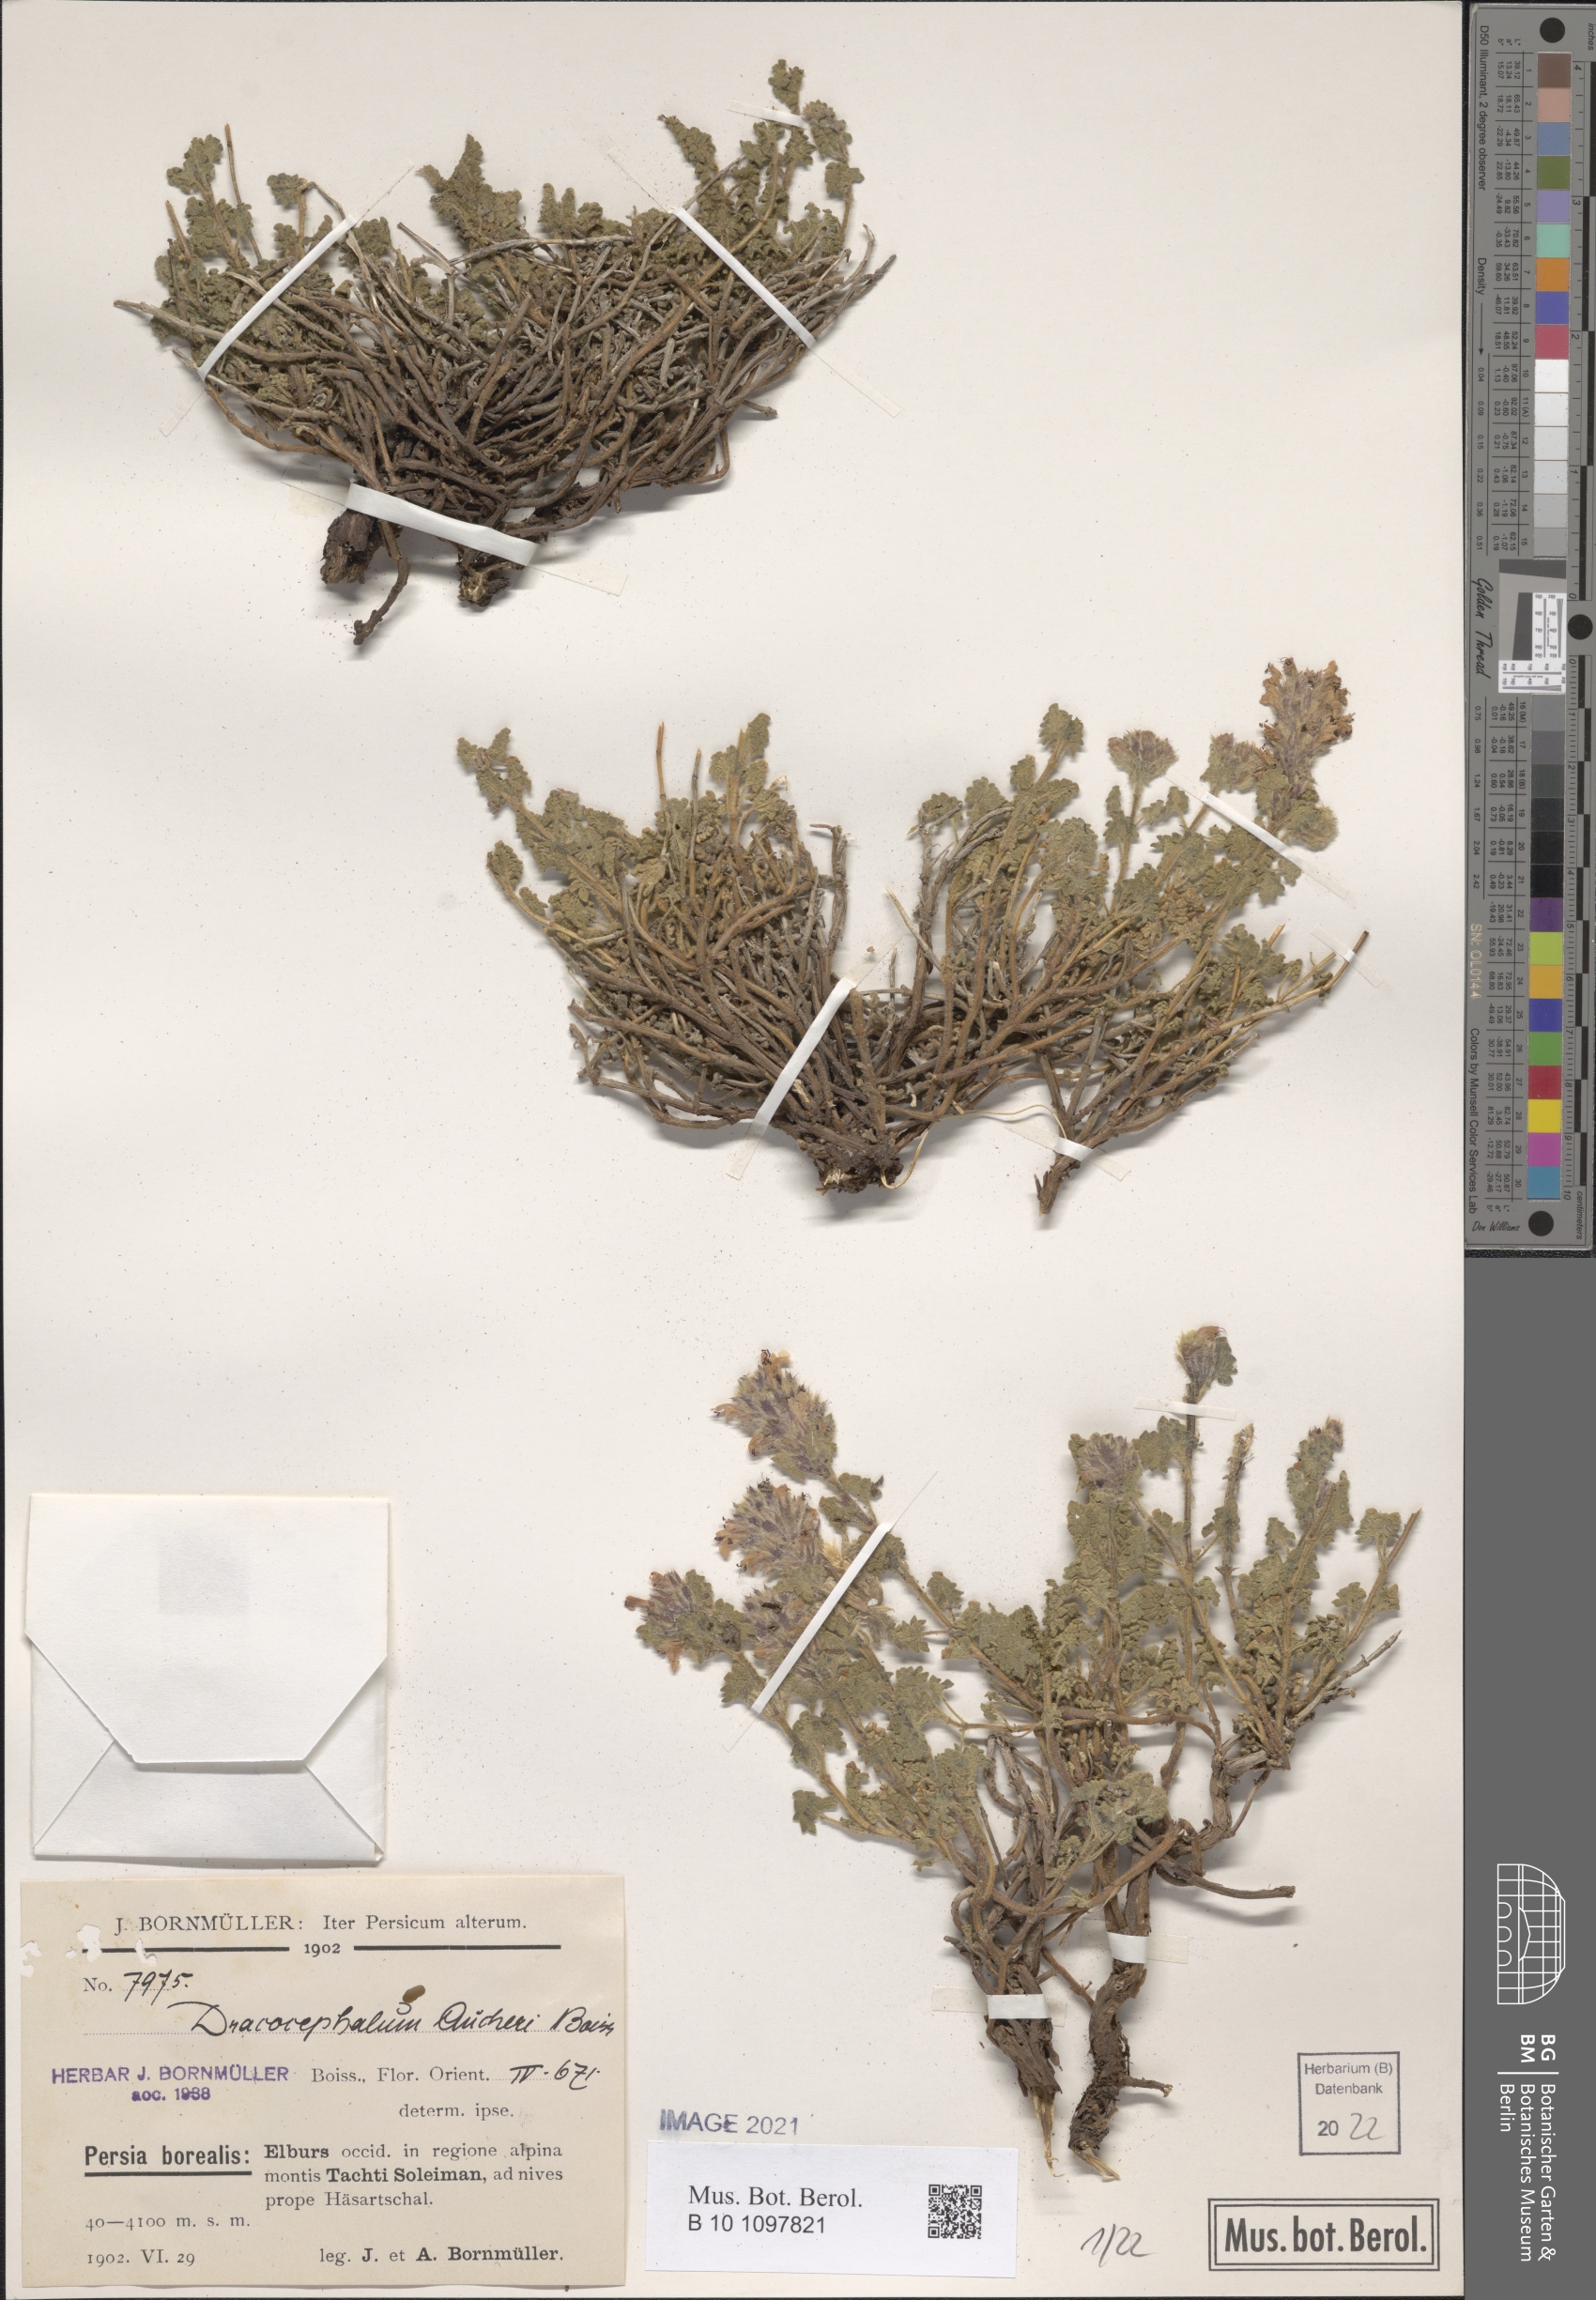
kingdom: Plantae
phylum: Tracheophyta
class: Magnoliopsida
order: Lamiales
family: Lamiaceae
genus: Dracocephalum
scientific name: Dracocephalum aucheri
